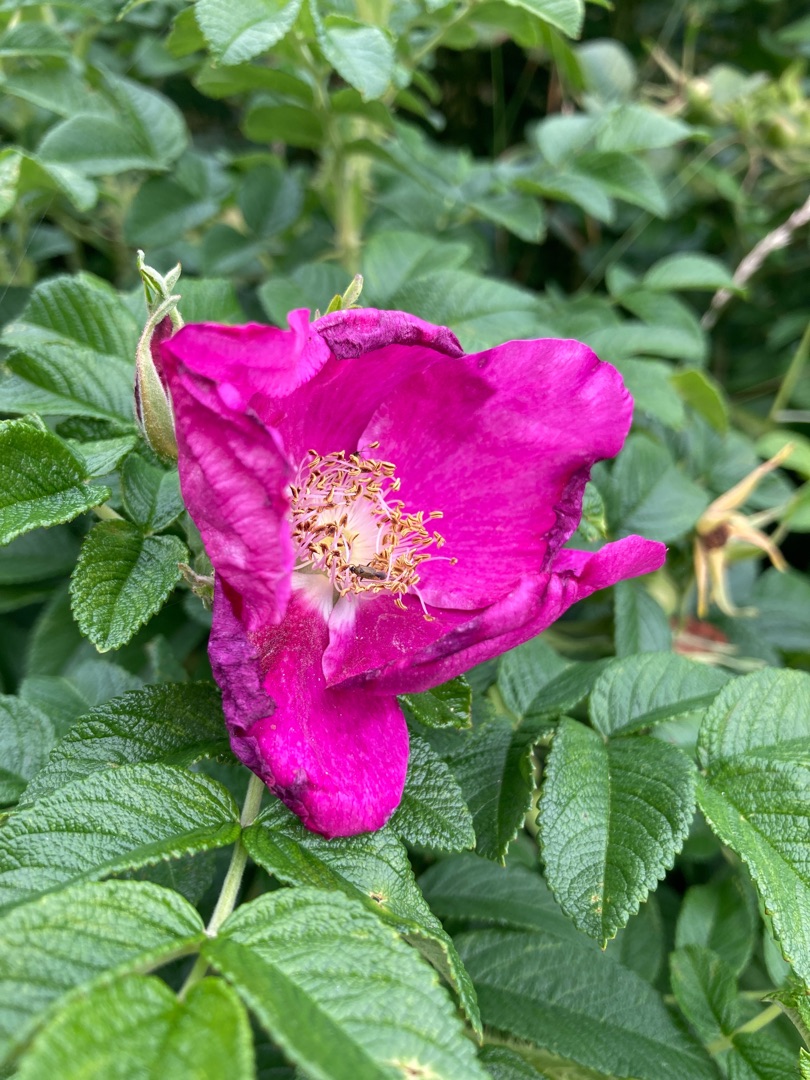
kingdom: Plantae
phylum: Tracheophyta
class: Magnoliopsida
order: Rosales
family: Rosaceae
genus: Rosa
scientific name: Rosa rugosa
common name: Rynket rose
